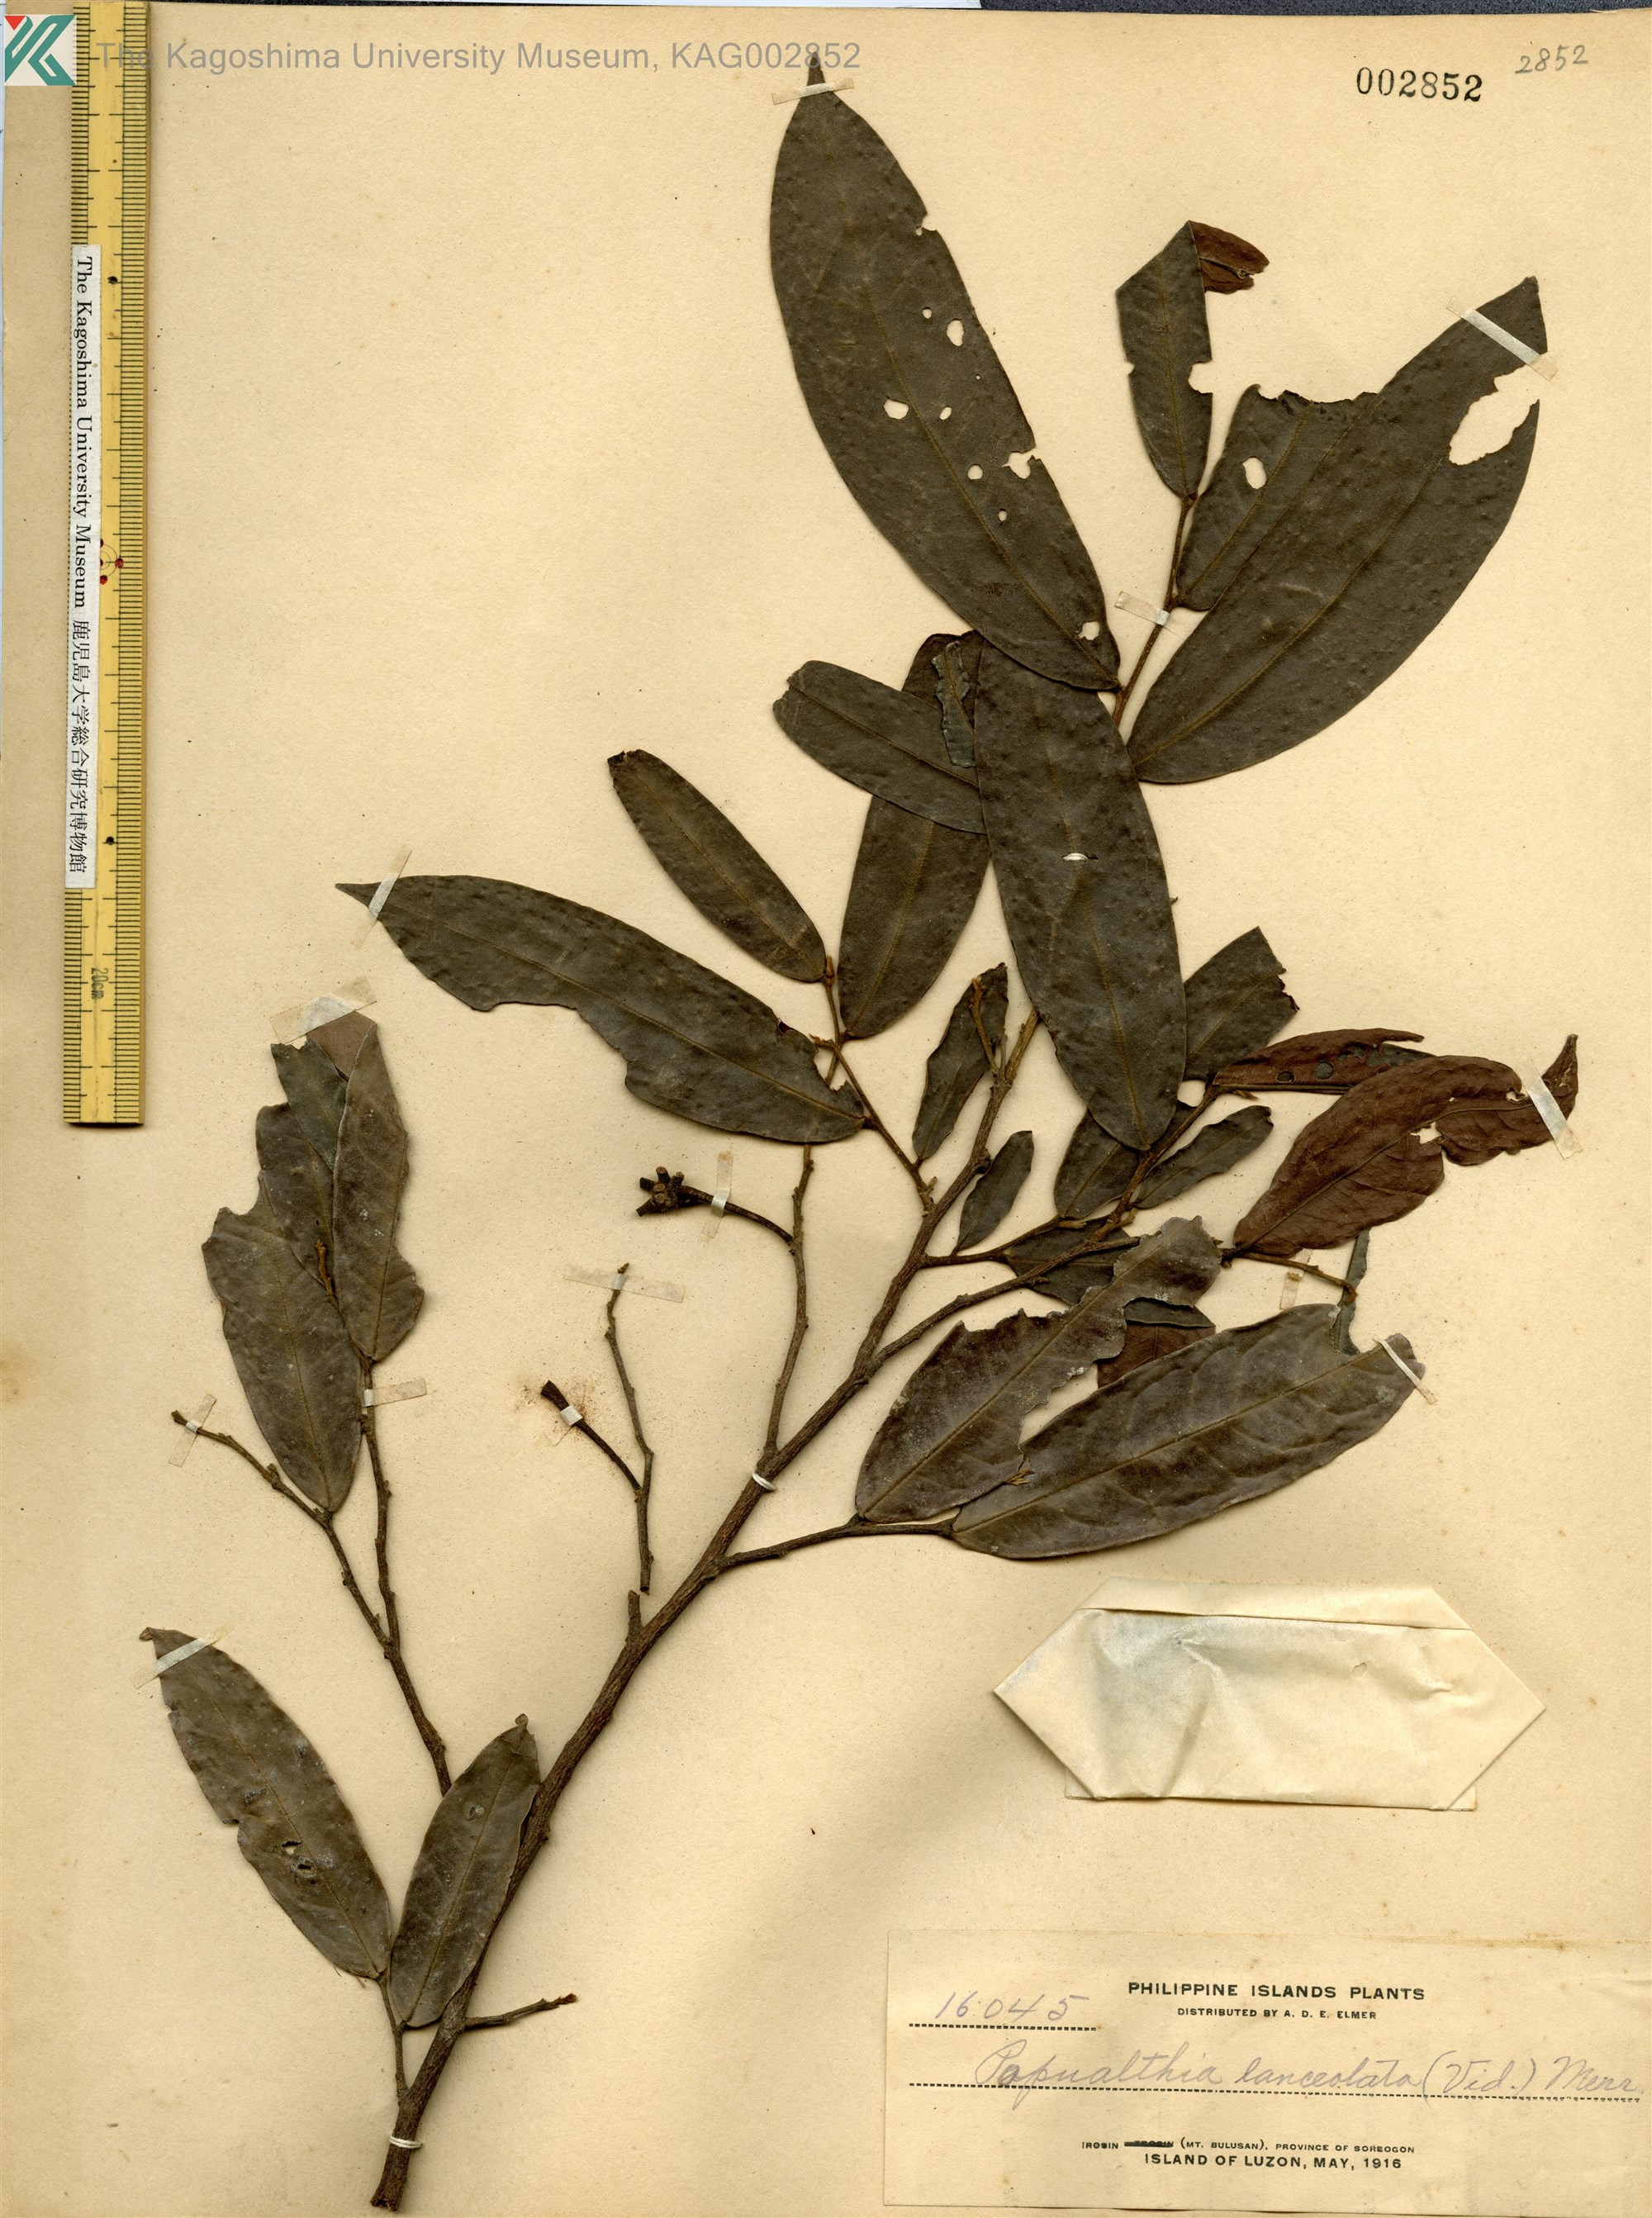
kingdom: Plantae
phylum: Tracheophyta
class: Magnoliopsida
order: Magnoliales
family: Annonaceae
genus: Haplostichanthus
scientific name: Haplostichanthus lanceolata
